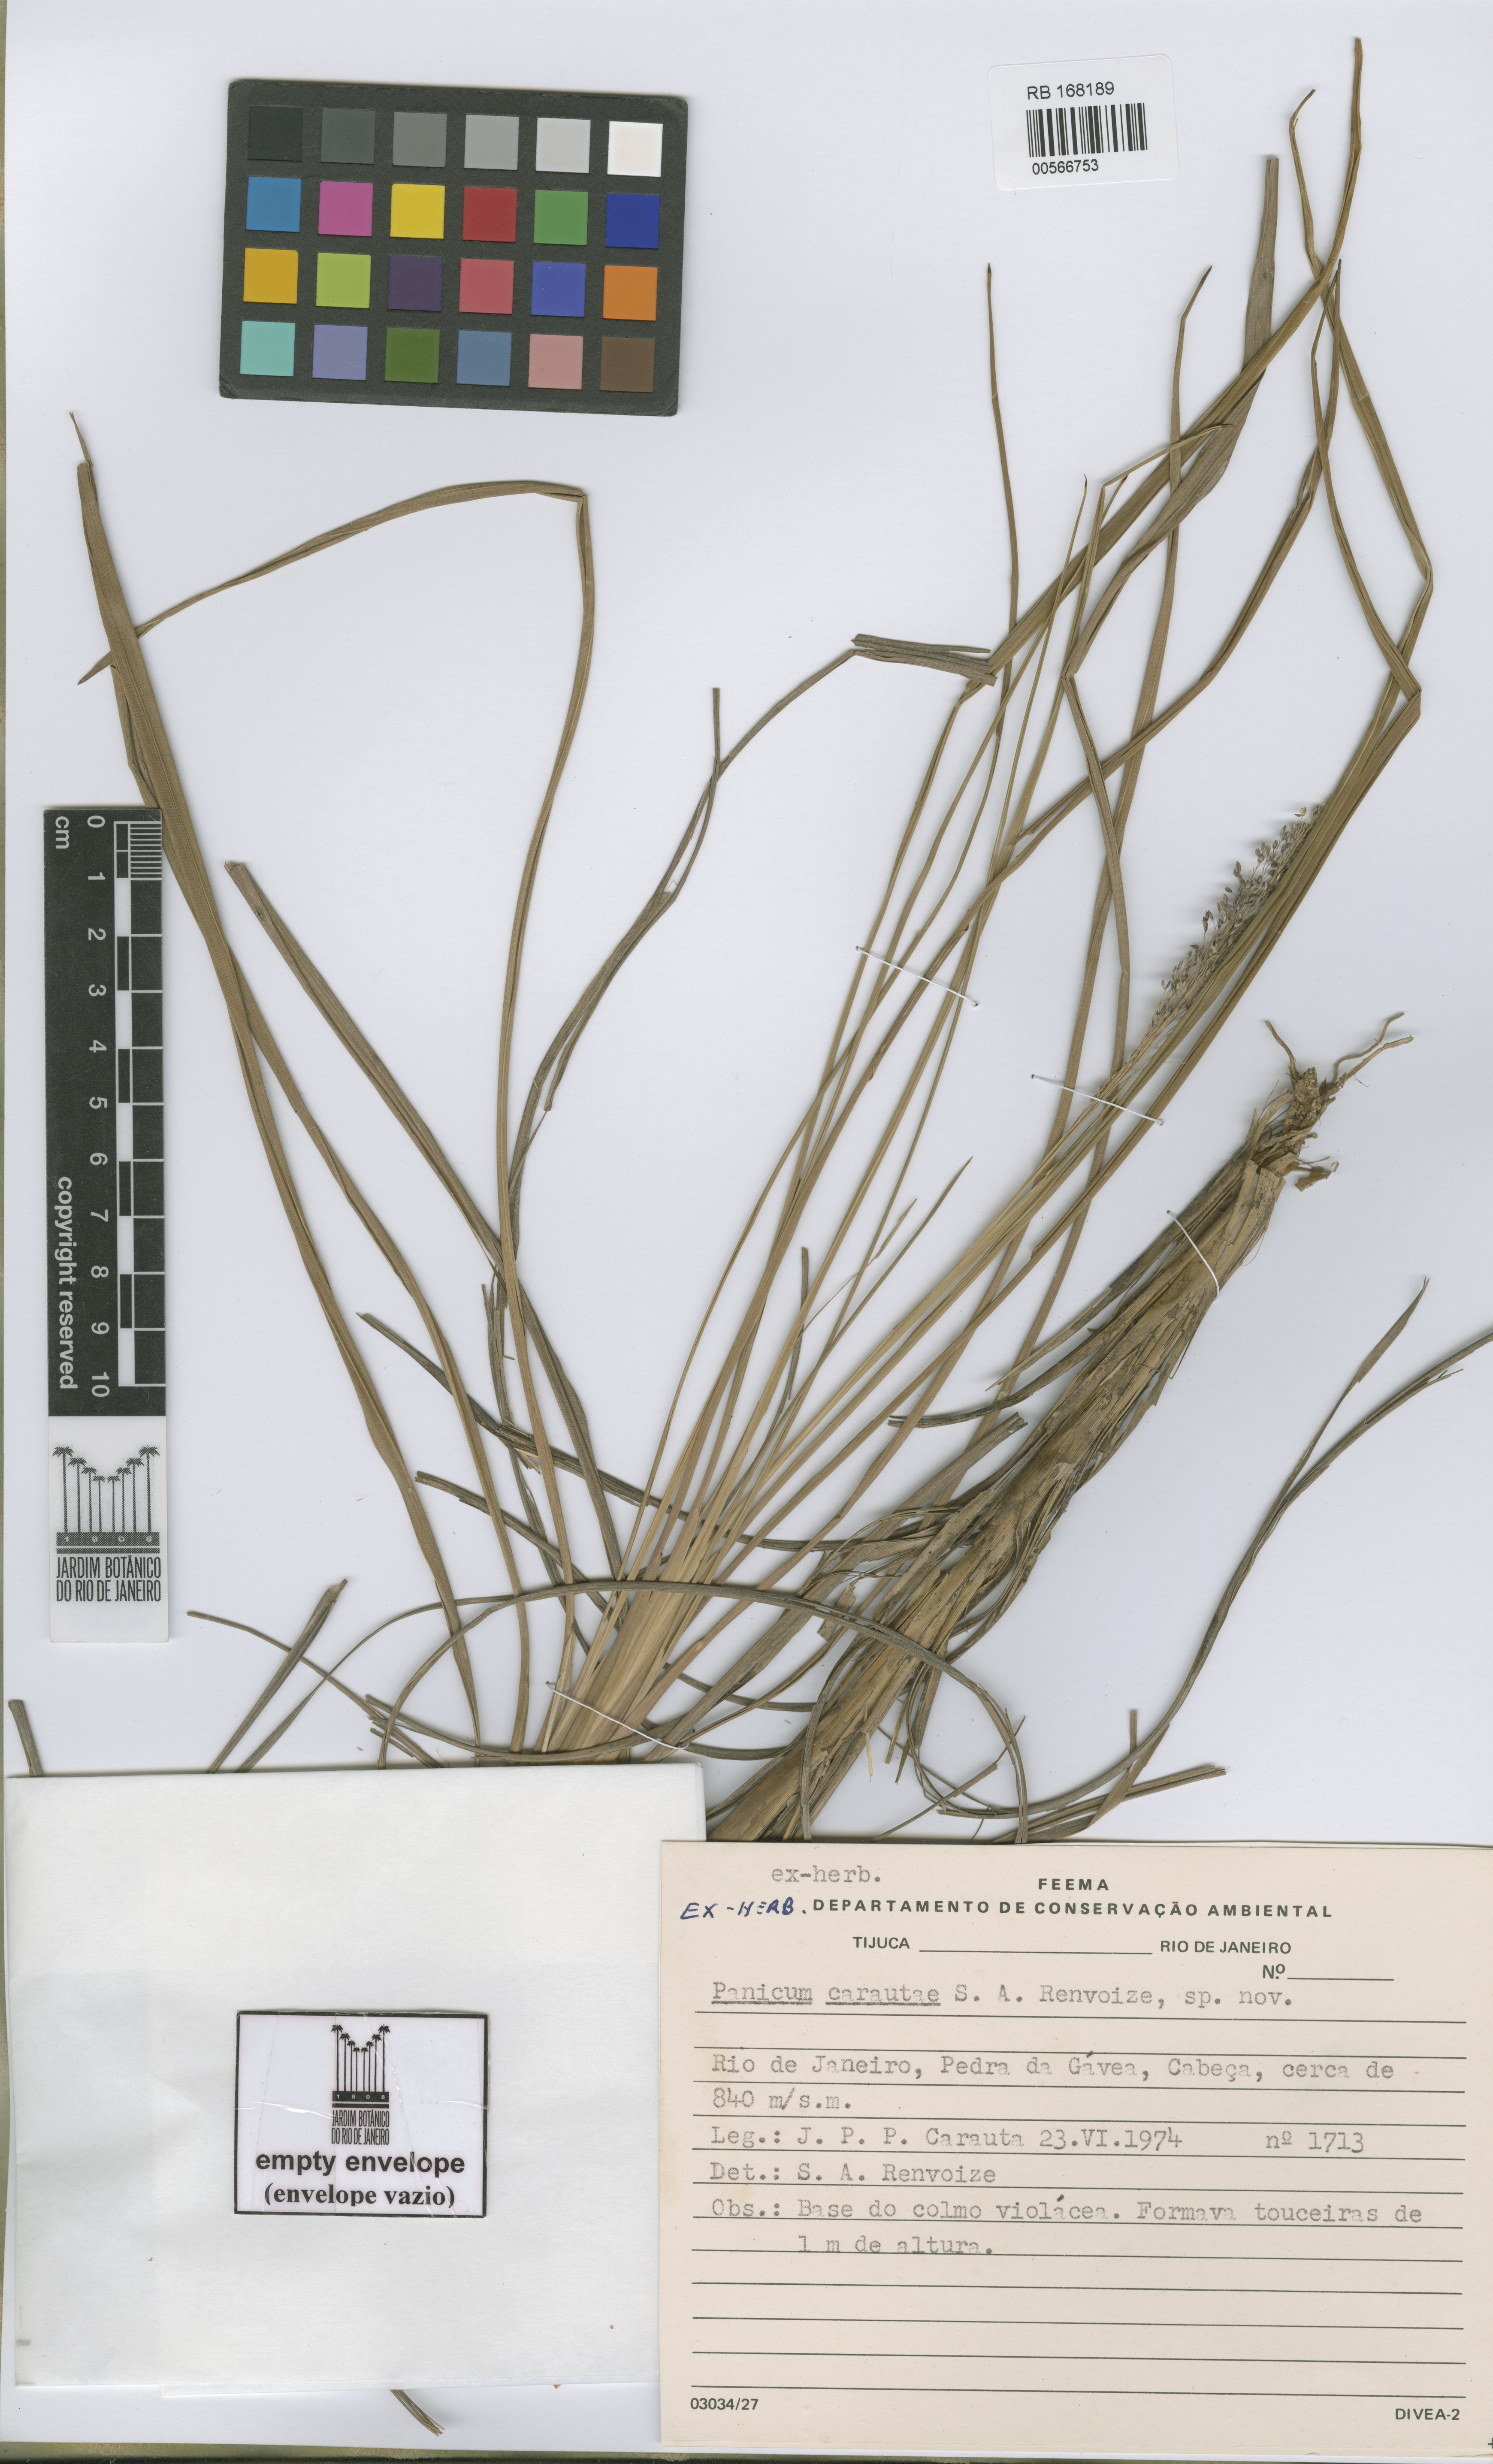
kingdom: Plantae
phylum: Tracheophyta
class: Liliopsida
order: Poales
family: Poaceae
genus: Apochloa
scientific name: Apochloa lutzii
